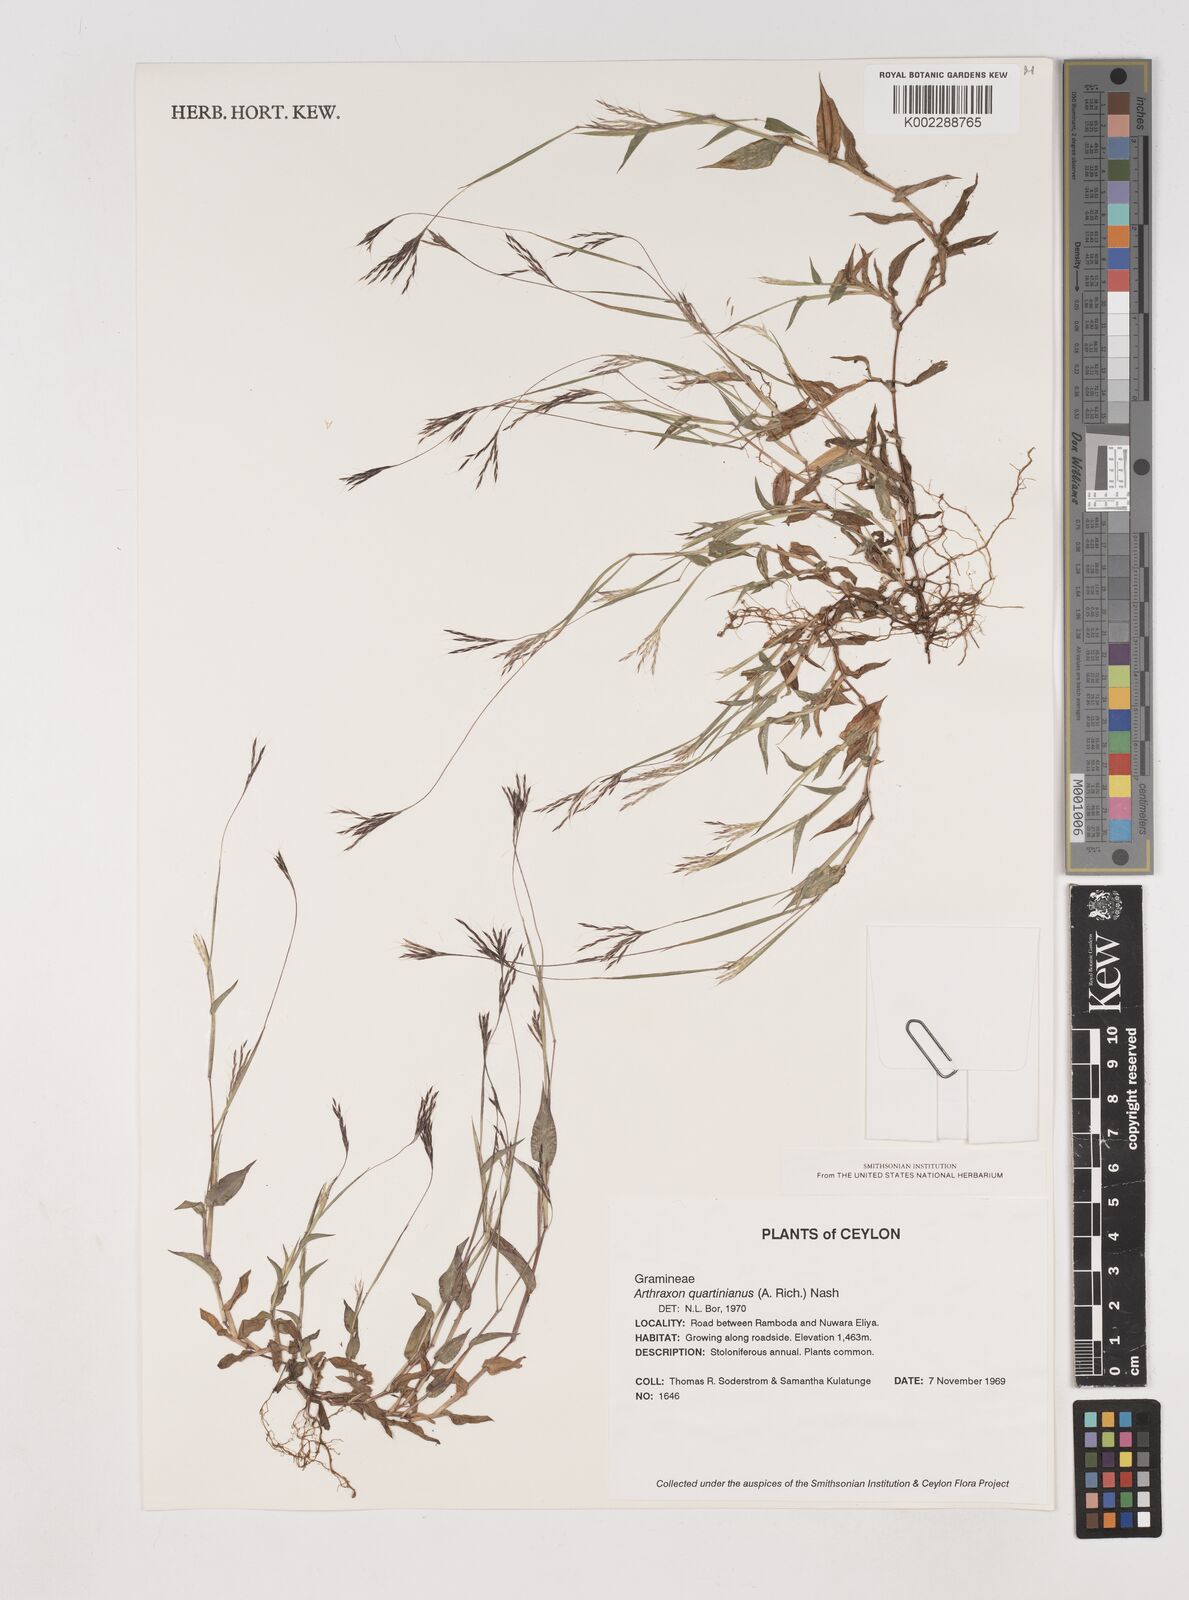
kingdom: Plantae
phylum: Tracheophyta
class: Liliopsida
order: Poales
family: Poaceae
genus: Arthraxon
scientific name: Arthraxon hispidus
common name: Small carpgrass
